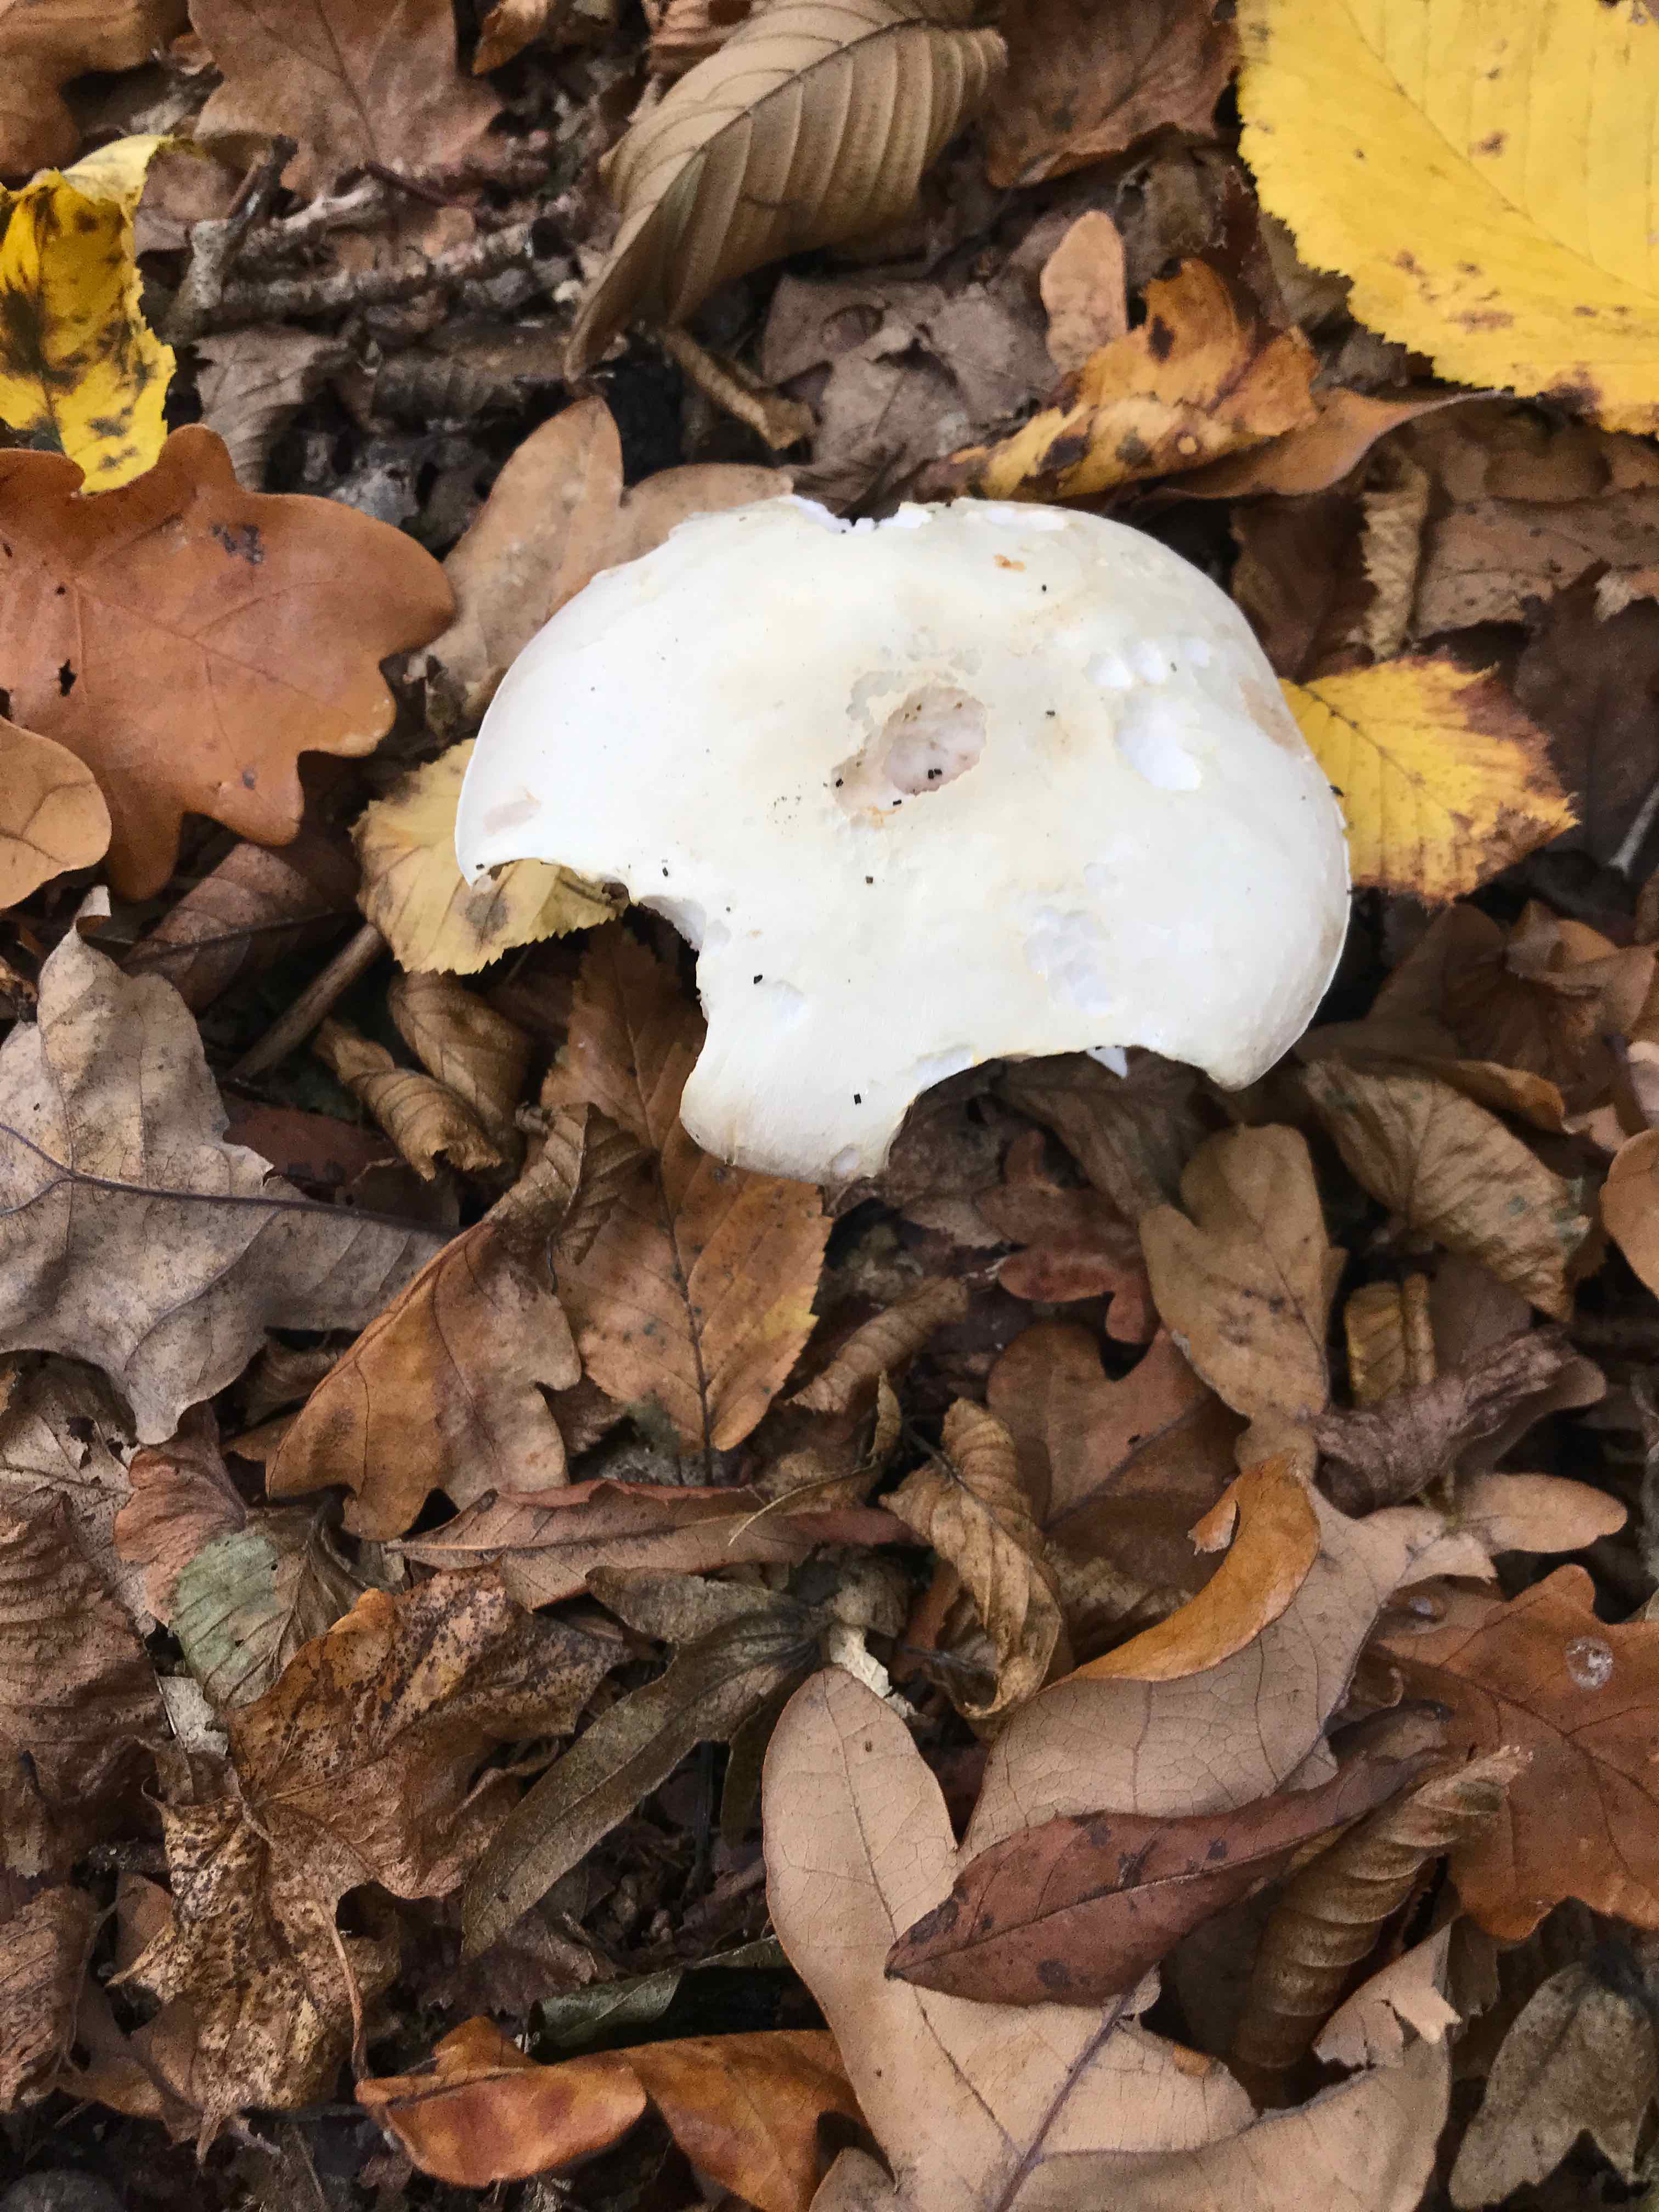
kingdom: Fungi
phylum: Basidiomycota
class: Agaricomycetes
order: Agaricales
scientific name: Agaricales
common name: champignonordenen
